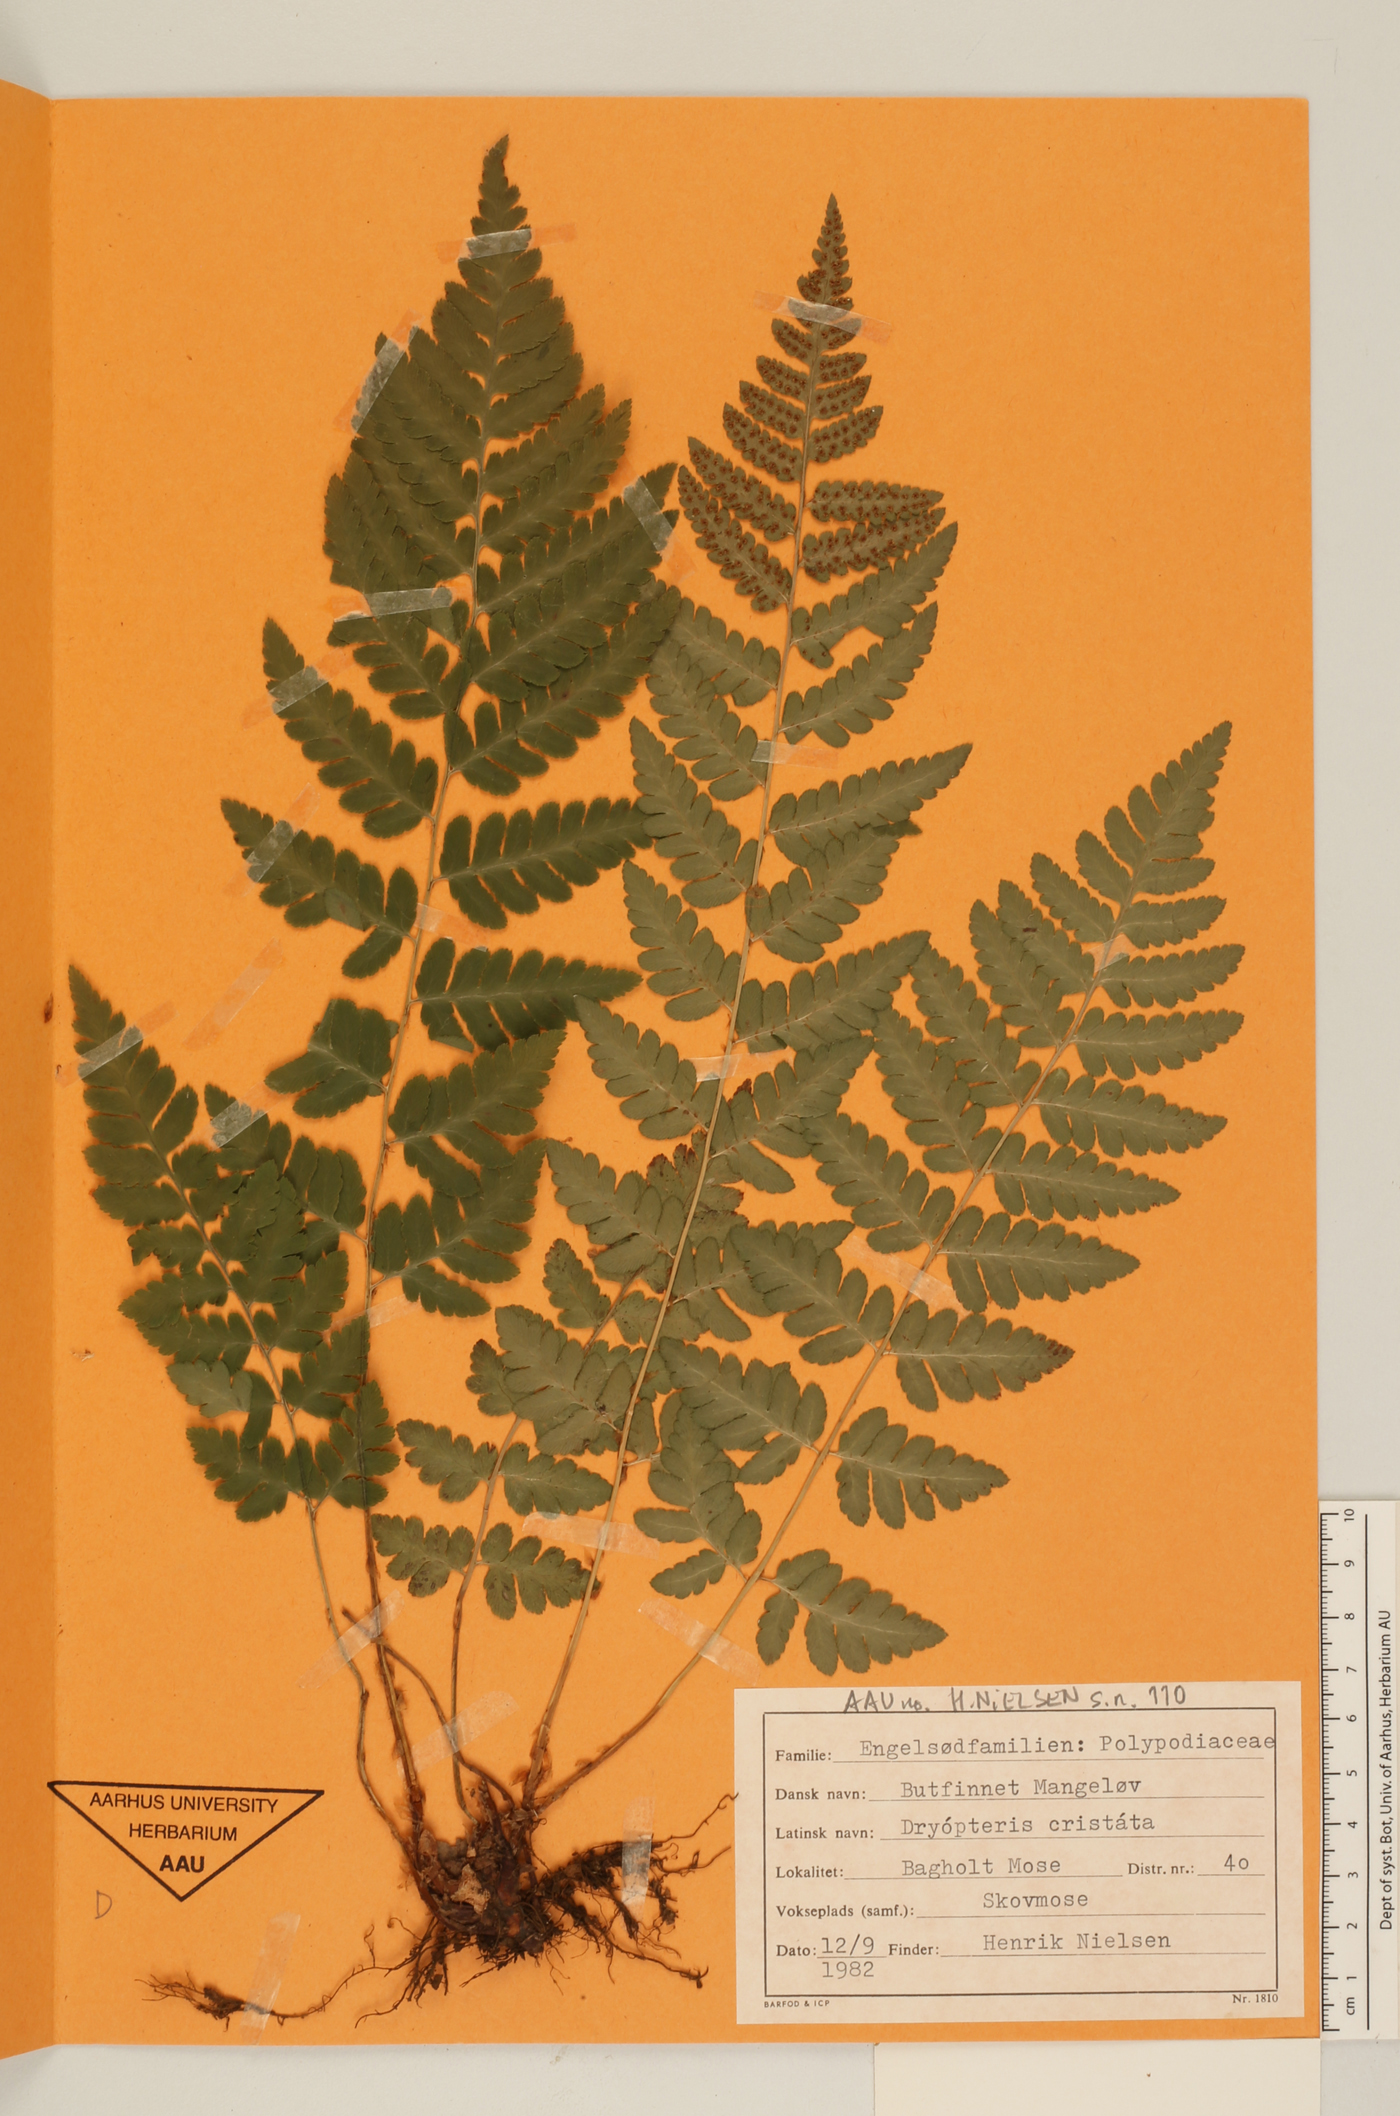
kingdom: Plantae
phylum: Tracheophyta
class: Polypodiopsida
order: Polypodiales
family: Dryopteridaceae
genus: Dryopteris
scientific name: Dryopteris cristata
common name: Crested wood fern
